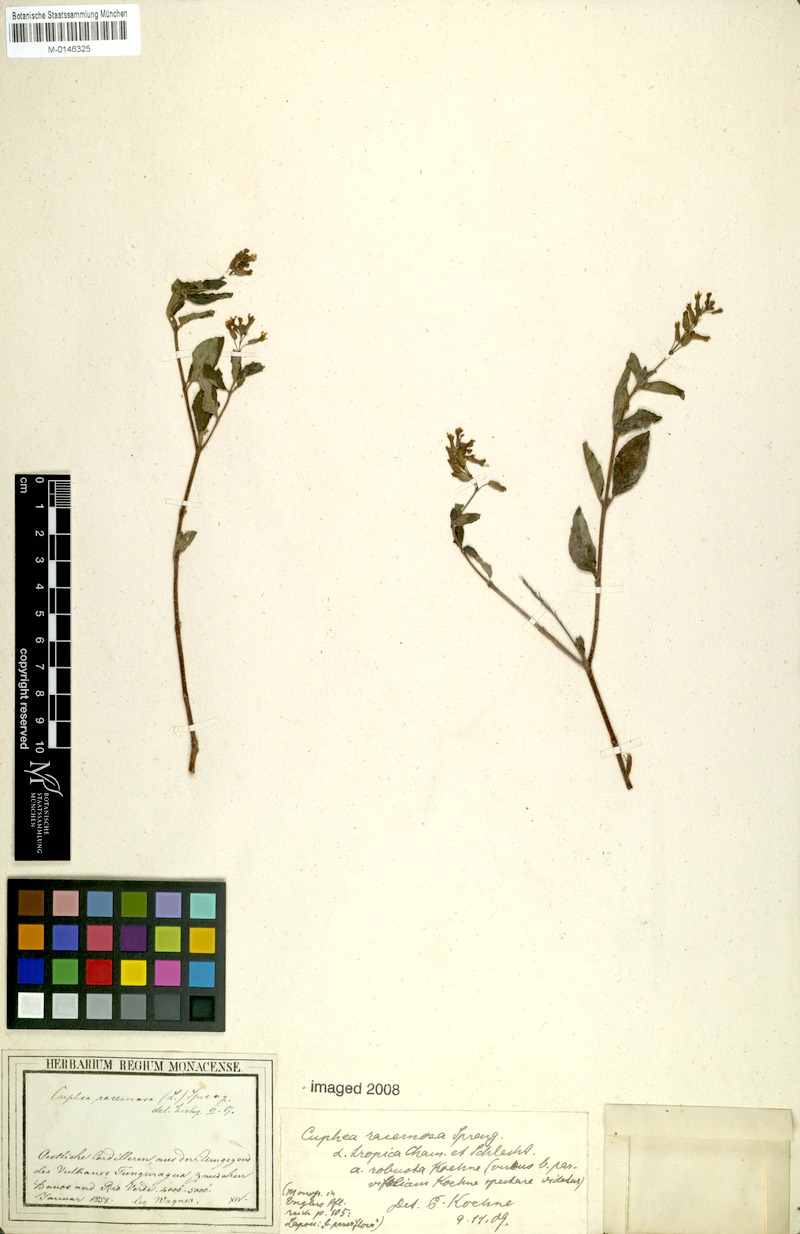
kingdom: Plantae
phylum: Tracheophyta
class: Magnoliopsida
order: Myrtales
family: Lythraceae
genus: Cuphea
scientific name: Cuphea racemosa
